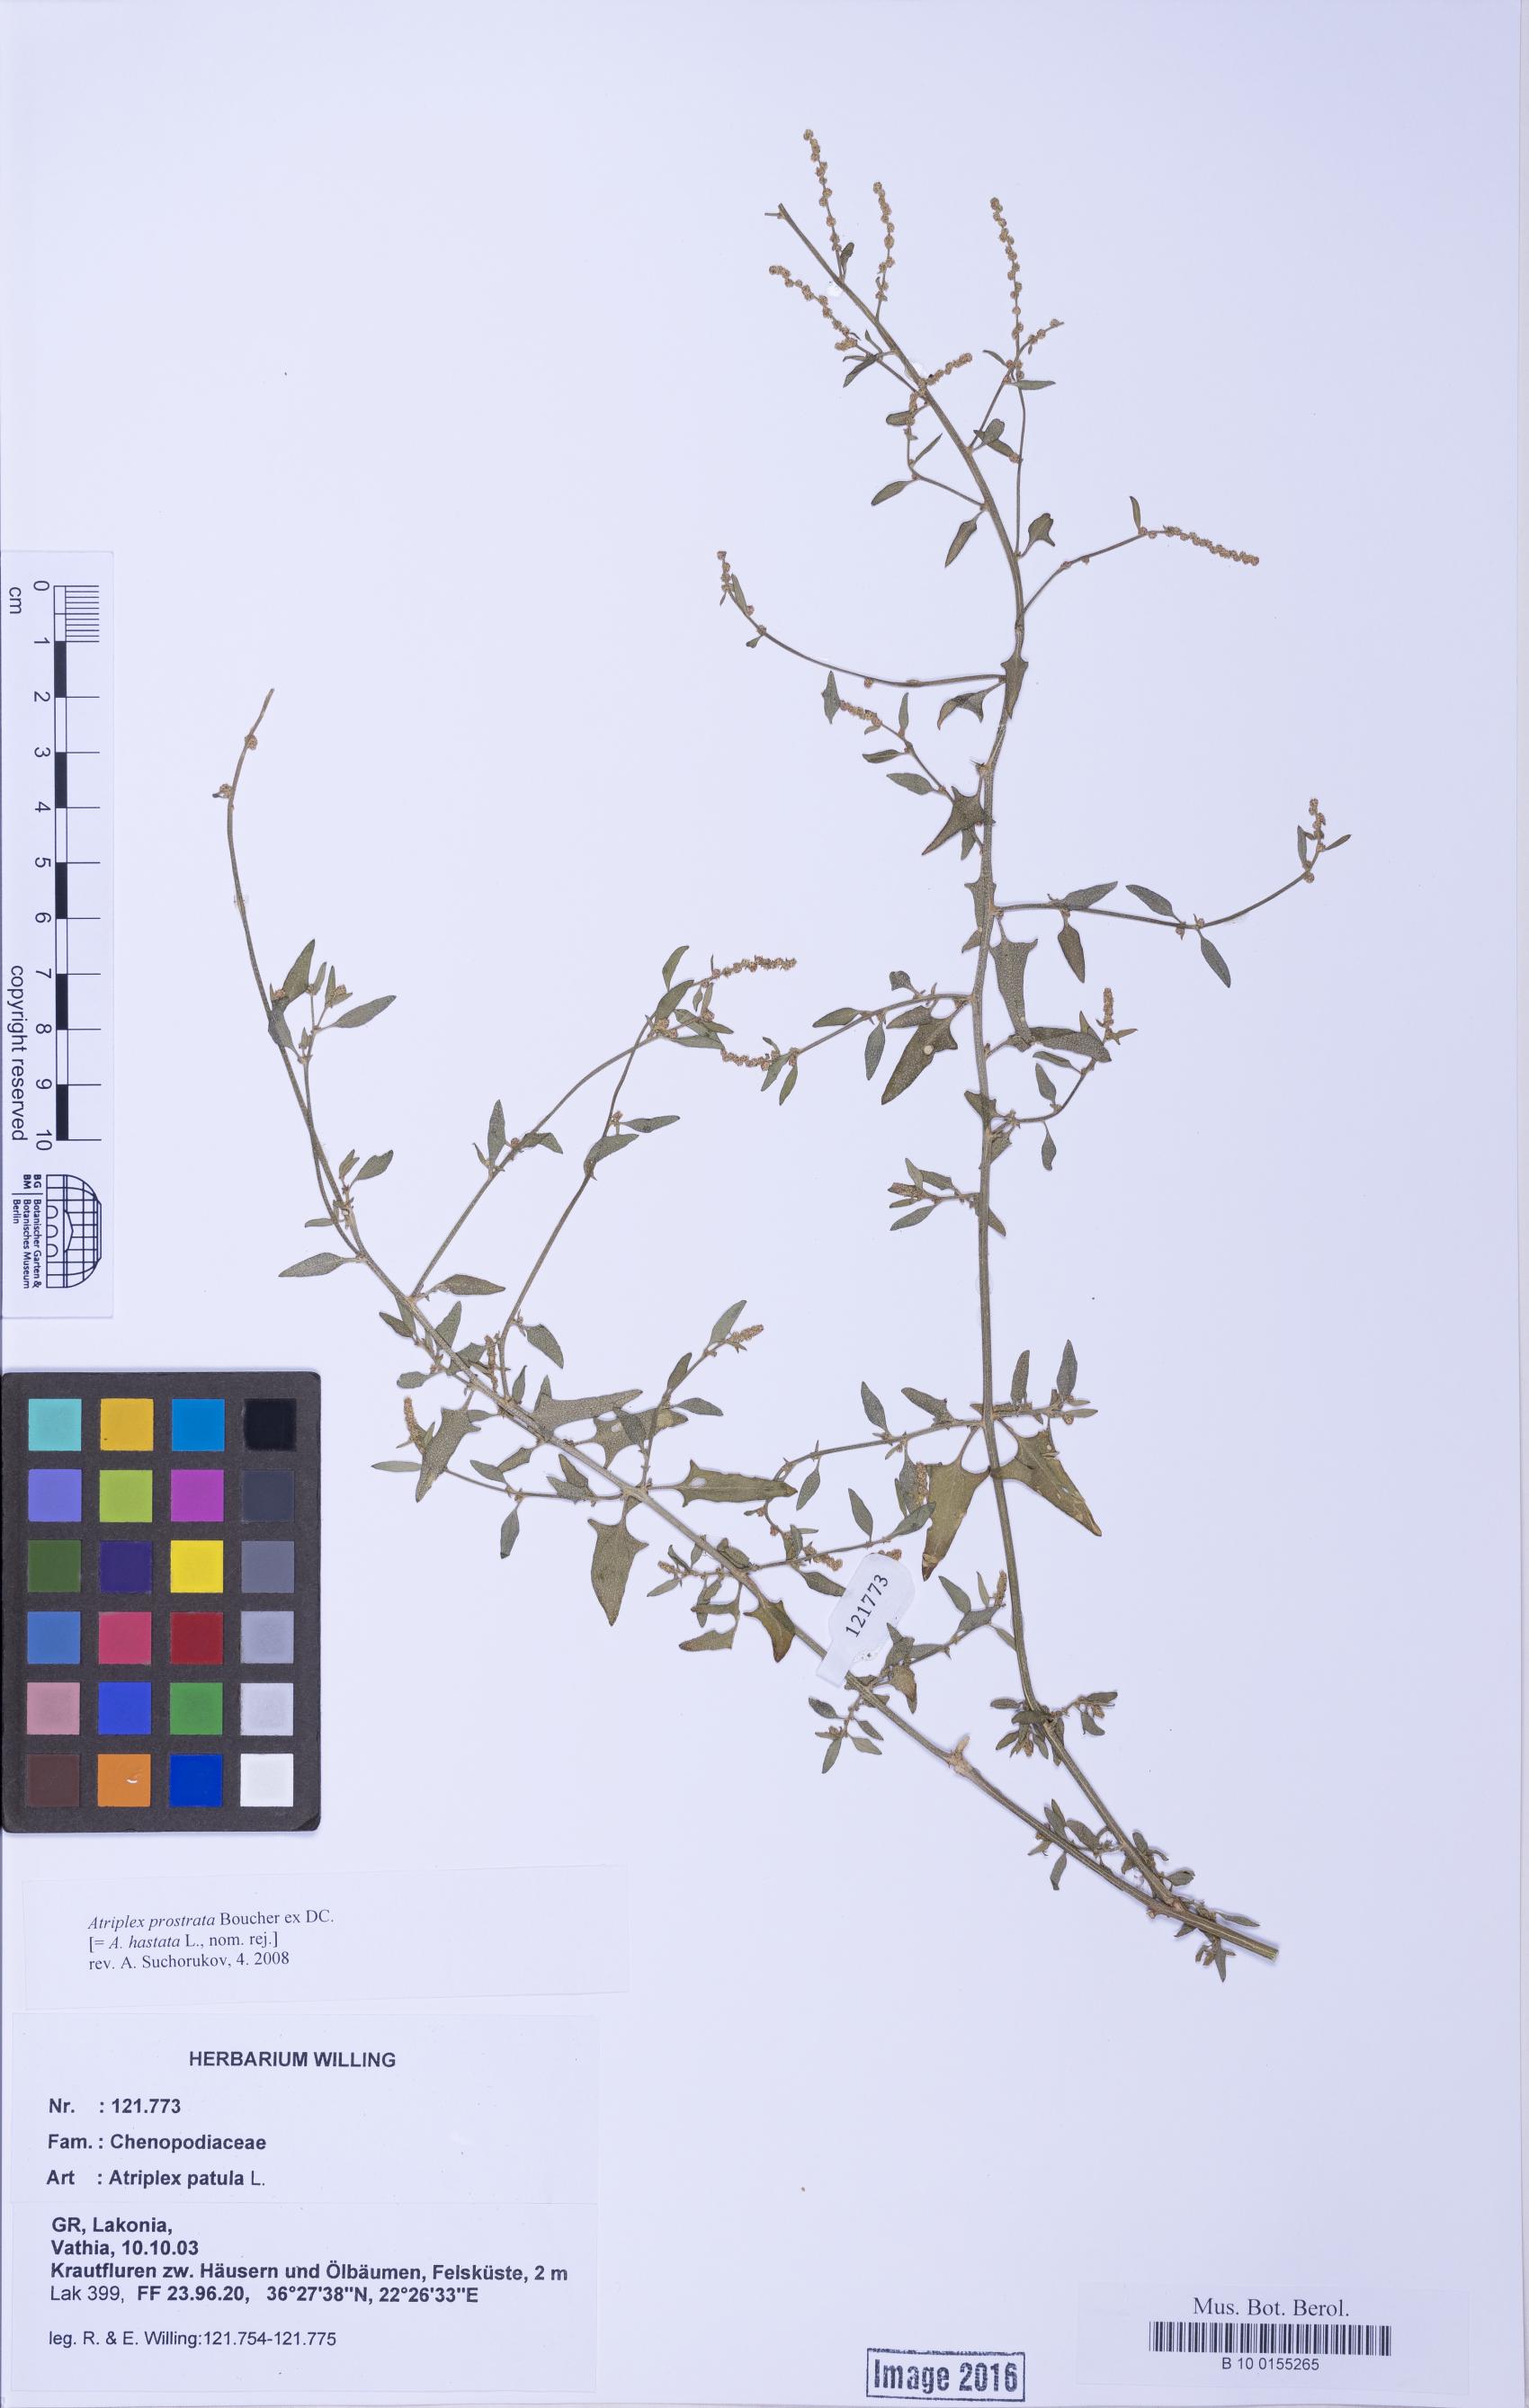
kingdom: Plantae
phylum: Tracheophyta
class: Magnoliopsida
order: Caryophyllales
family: Amaranthaceae
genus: Atriplex
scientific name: Atriplex prostrata
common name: Spear-leaved orache
